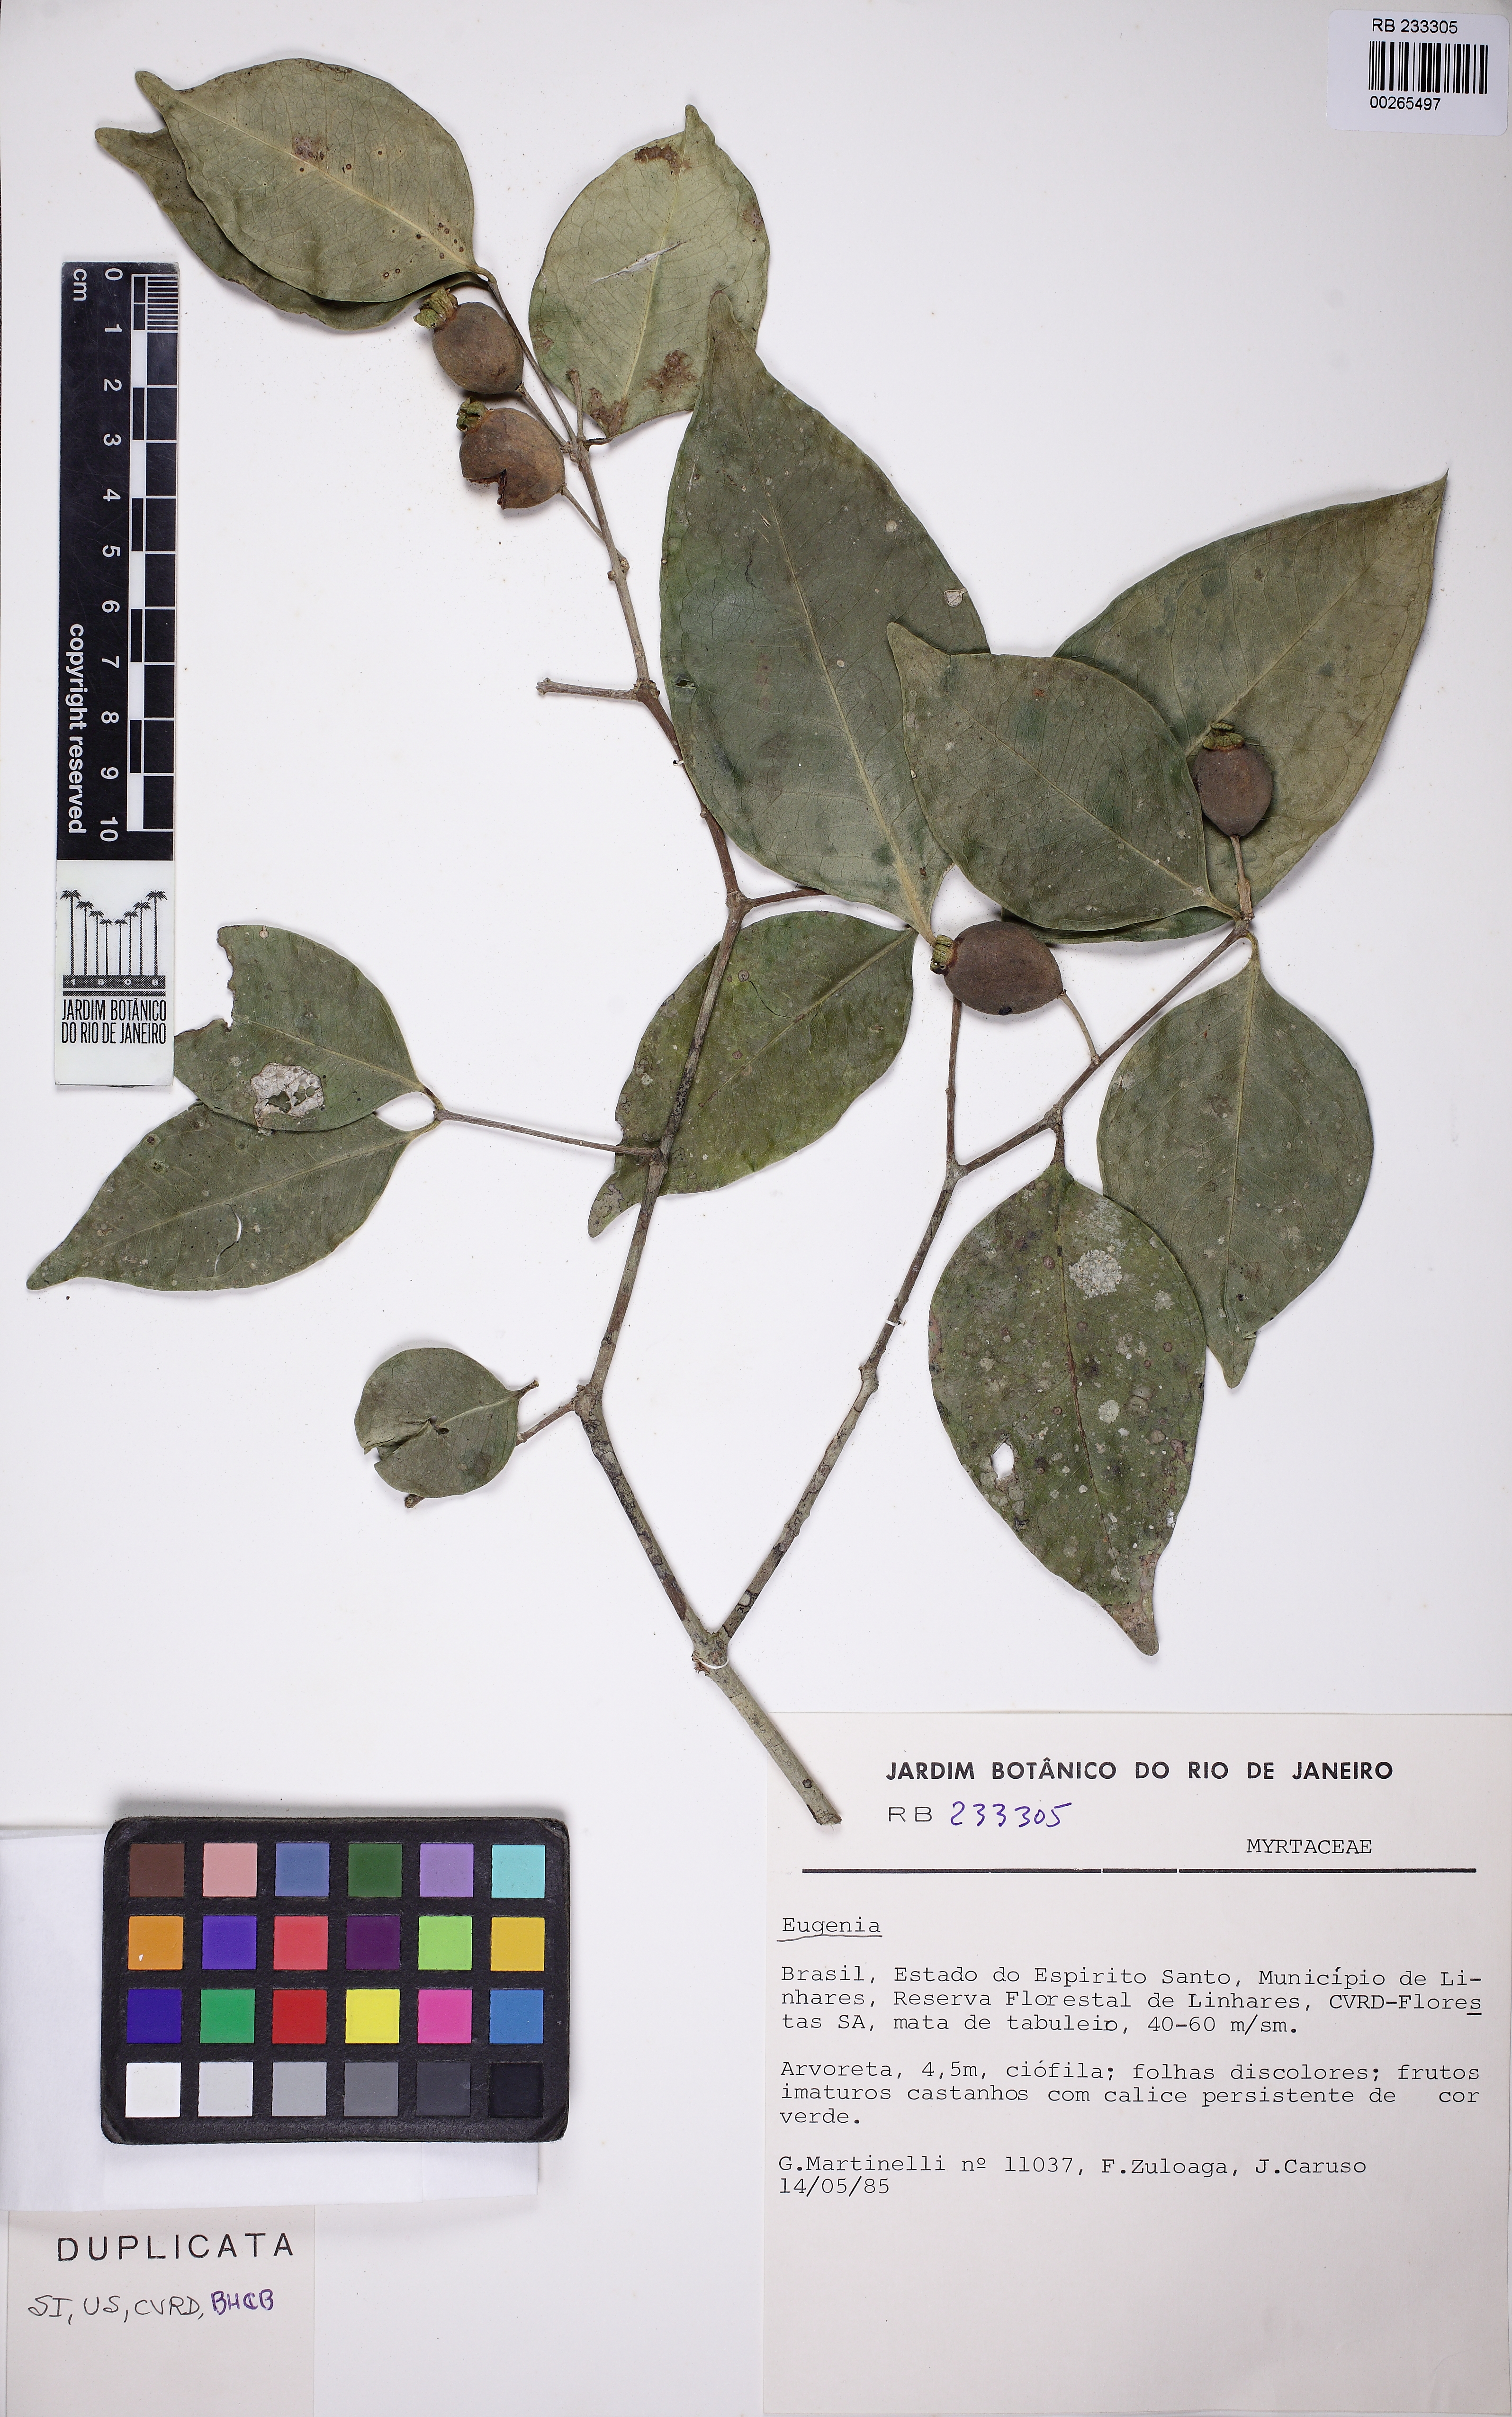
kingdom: Plantae
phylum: Tracheophyta
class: Magnoliopsida
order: Myrtales
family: Myrtaceae
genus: Eugenia
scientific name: Eugenia mandioccensis
